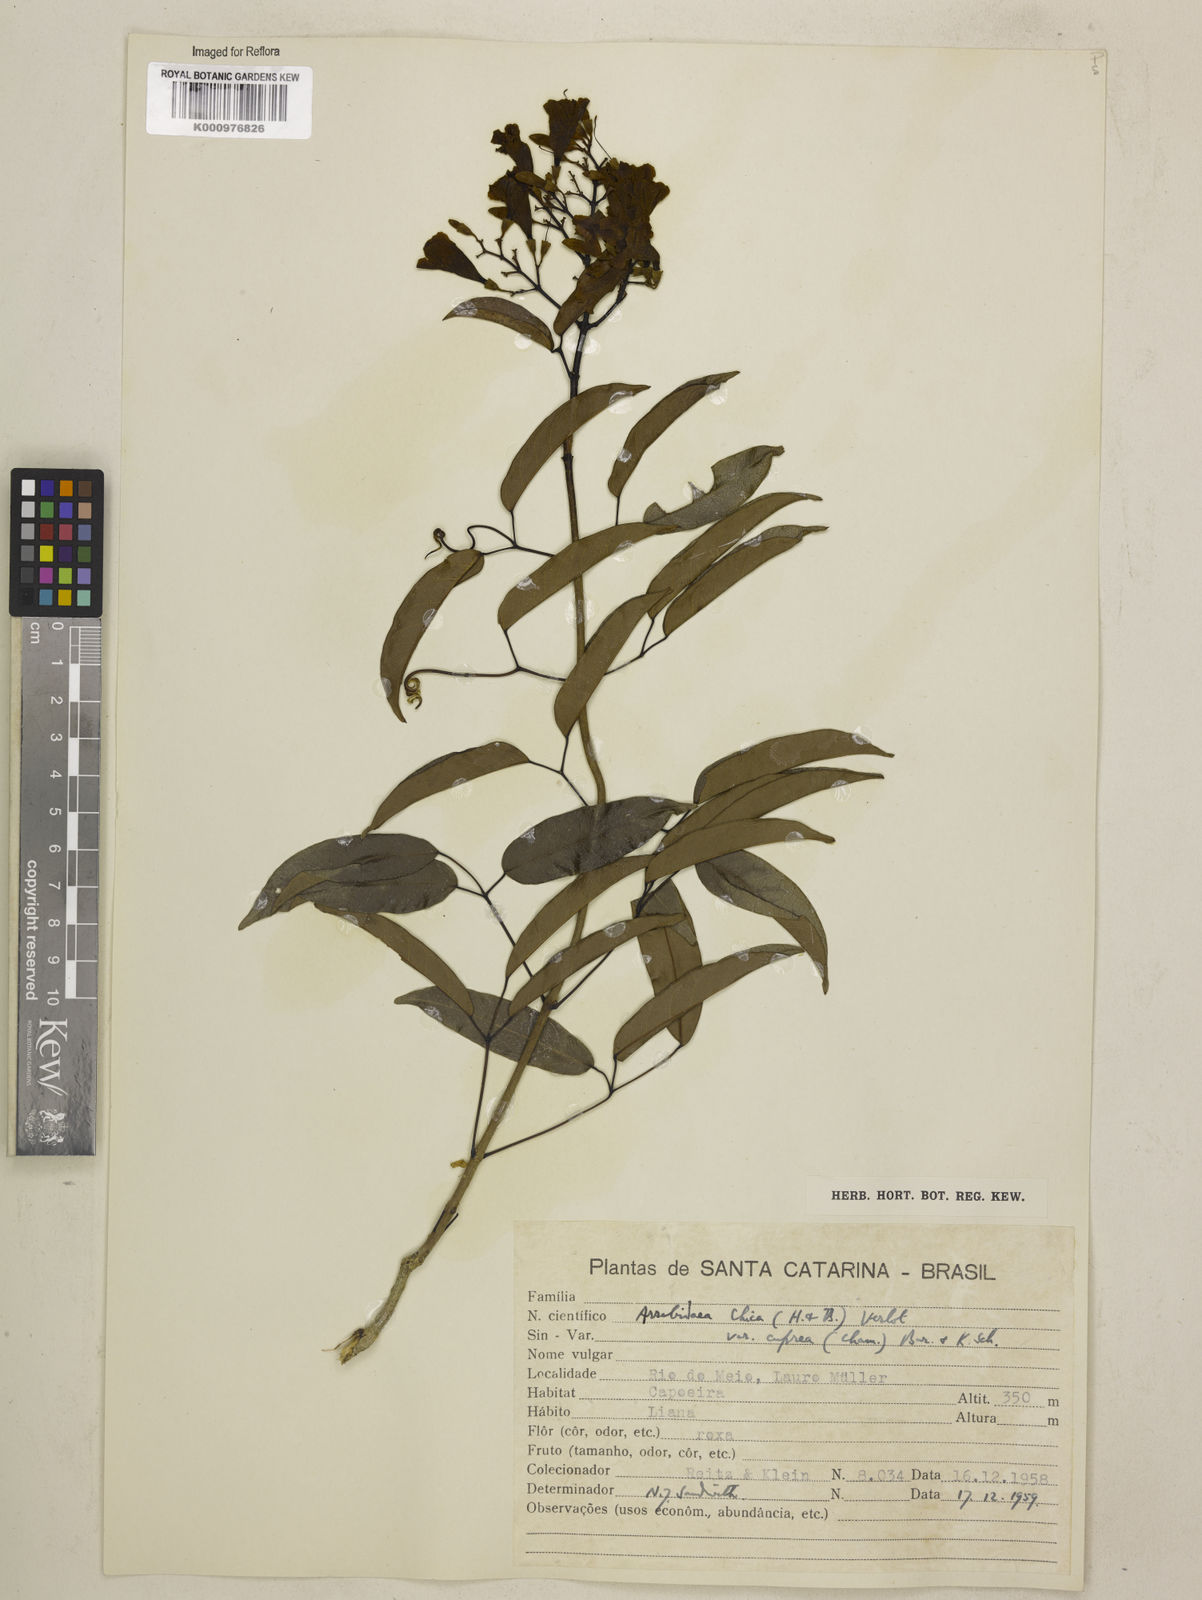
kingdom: Plantae
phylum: Tracheophyta
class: Magnoliopsida
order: Lamiales
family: Bignoniaceae
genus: Fridericia
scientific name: Fridericia chica
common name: Cricketvine
